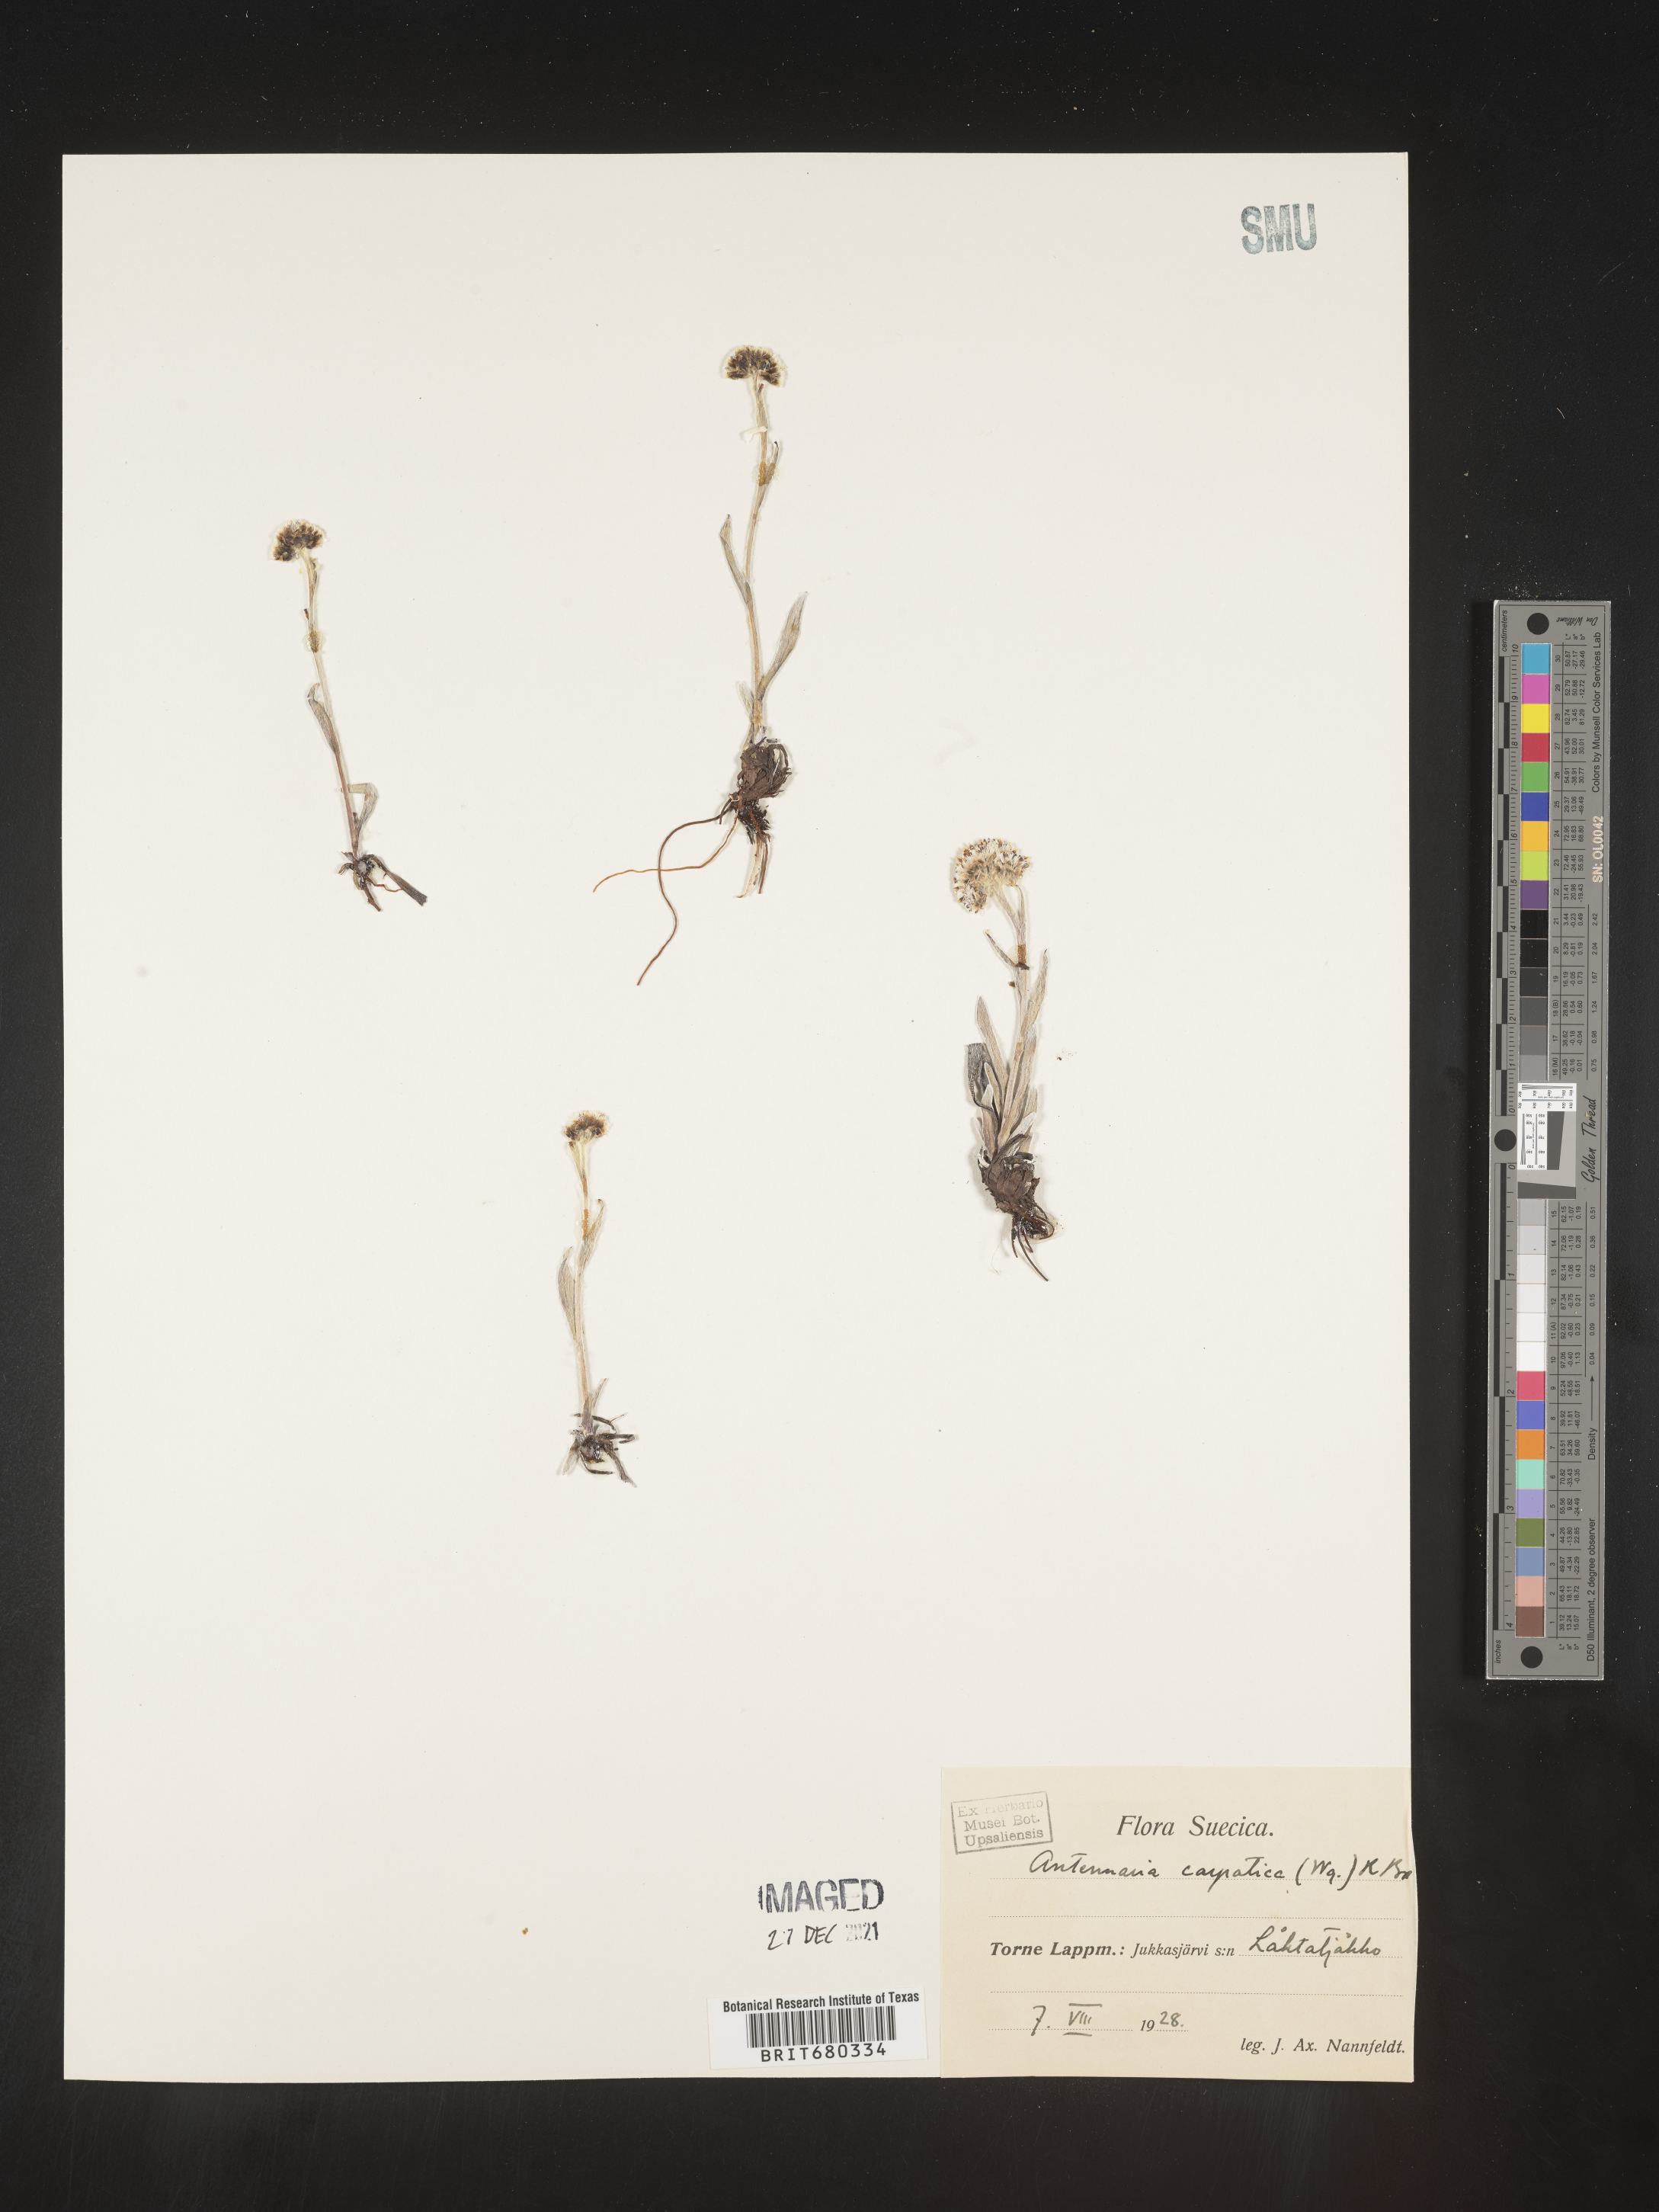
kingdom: Plantae
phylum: Tracheophyta
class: Magnoliopsida
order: Asterales
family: Asteraceae
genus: Antennaria
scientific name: Antennaria
